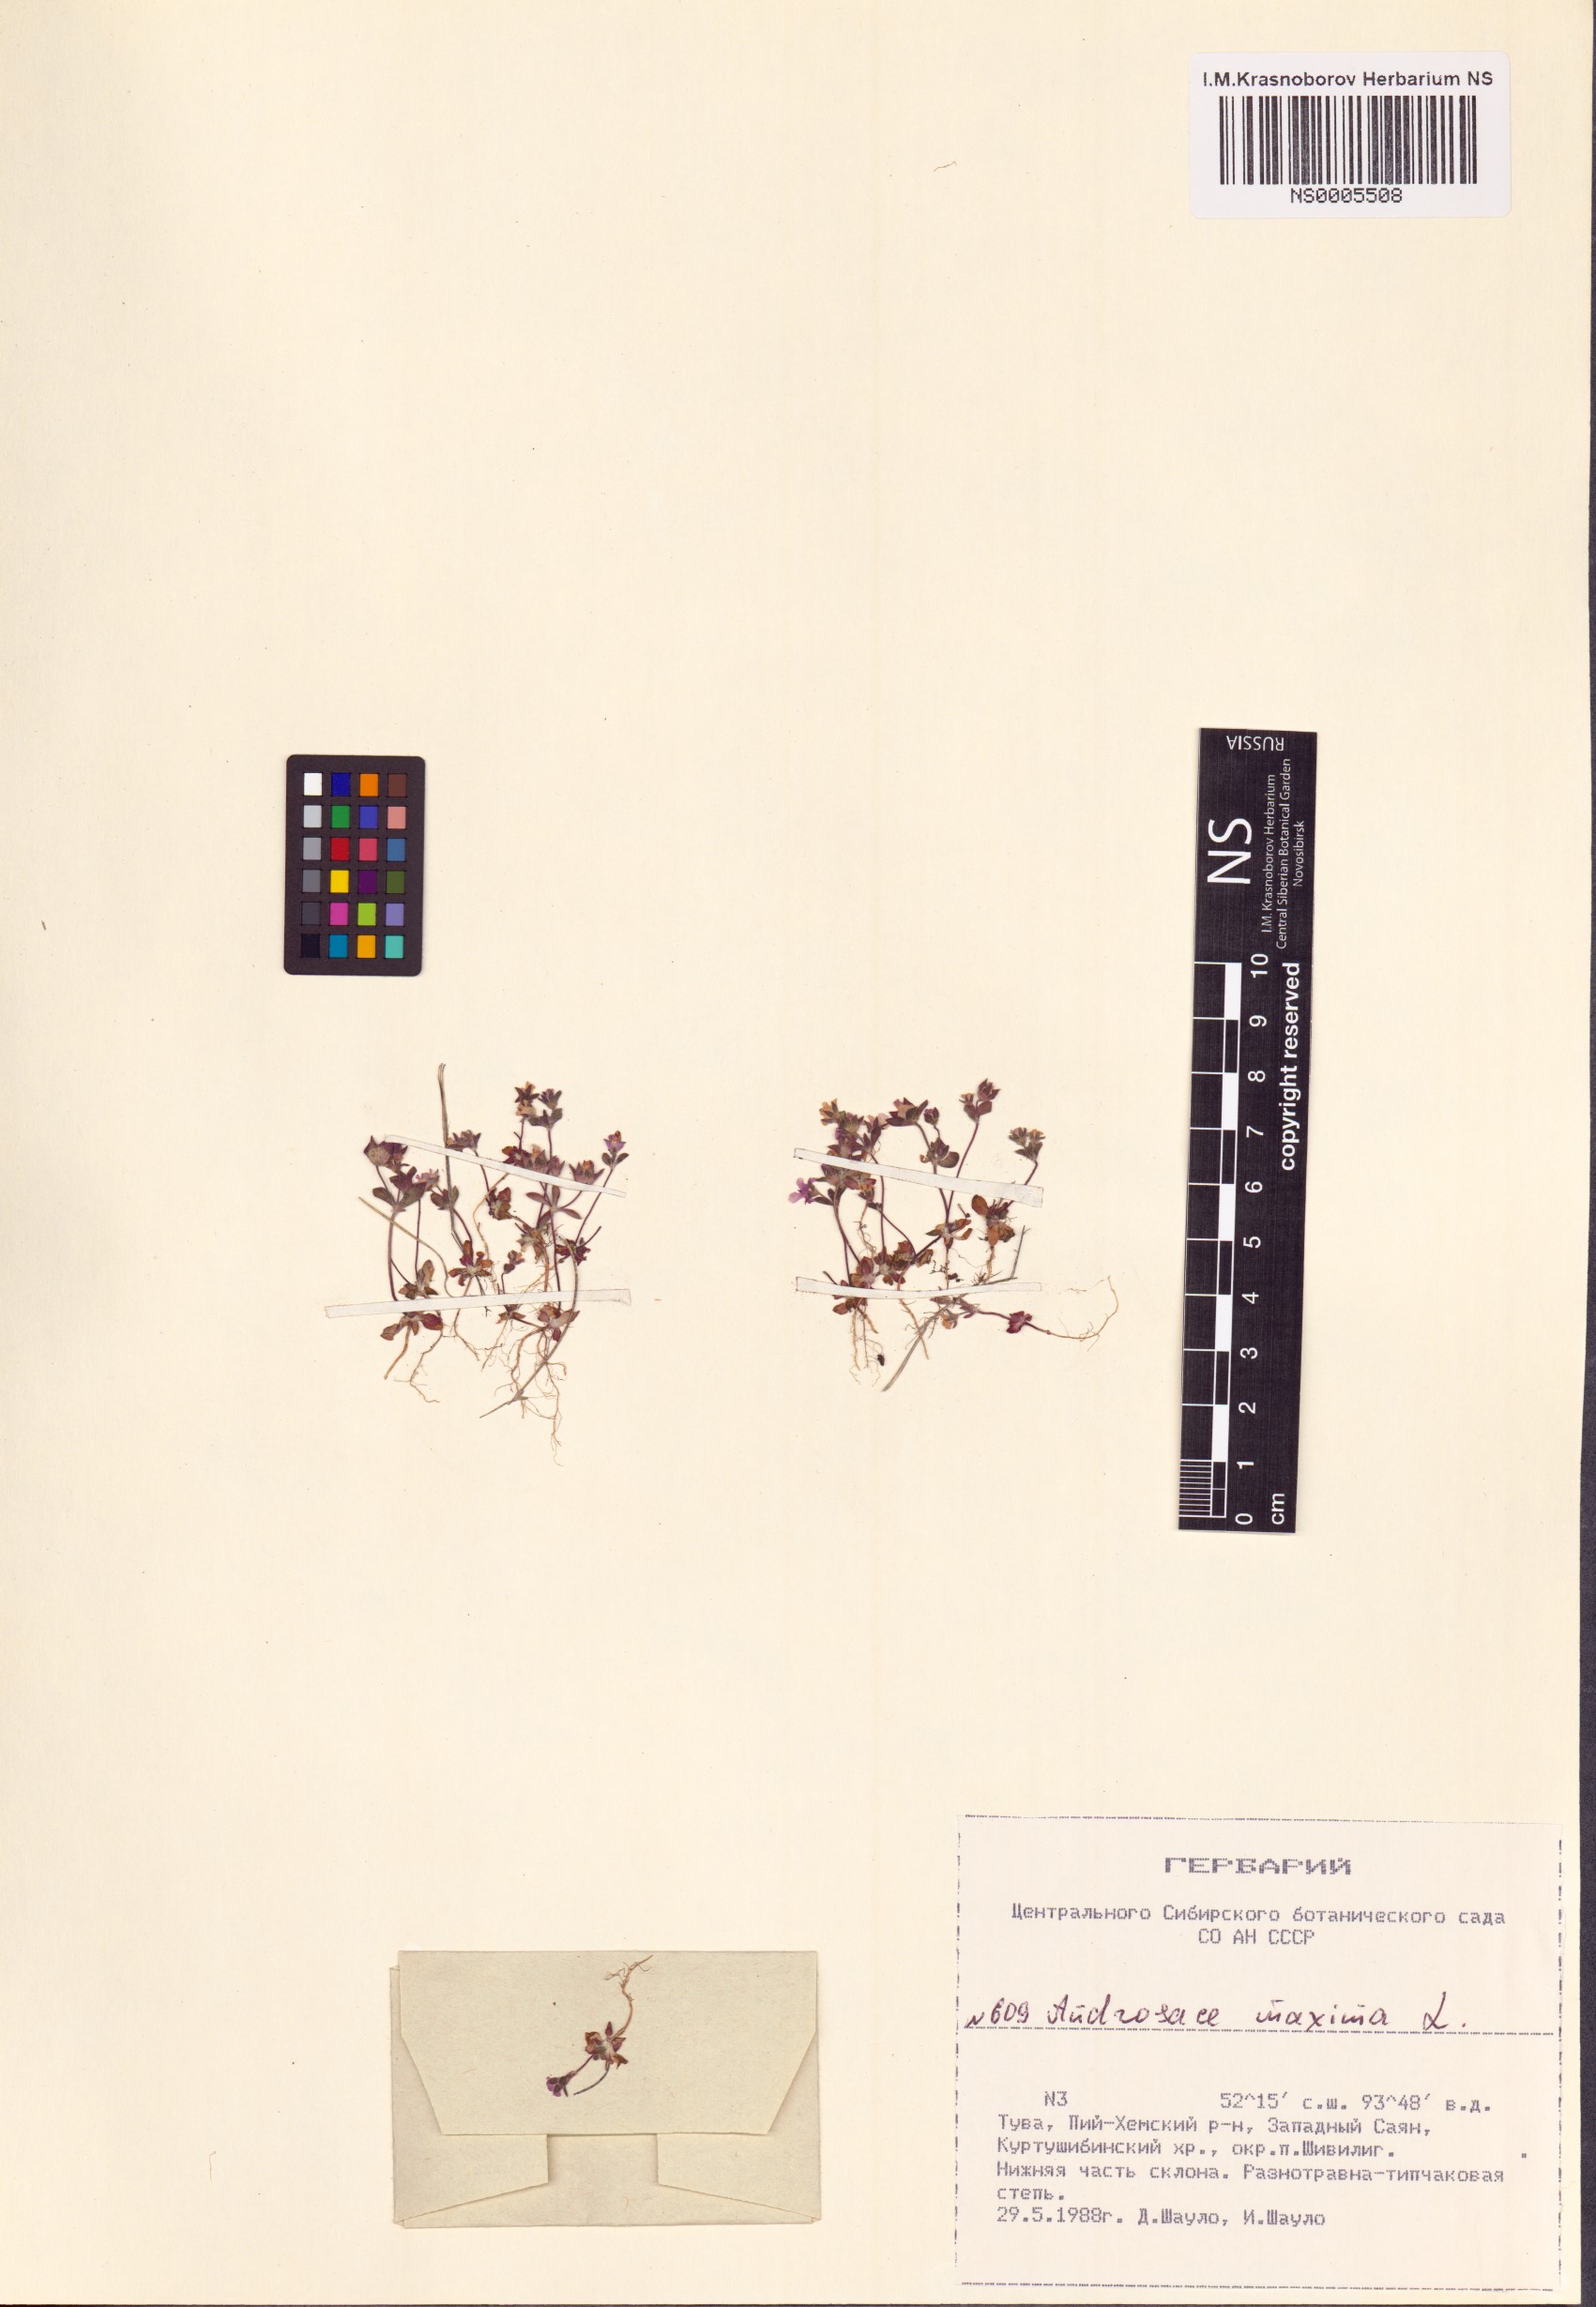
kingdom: Plantae
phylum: Tracheophyta
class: Magnoliopsida
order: Ericales
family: Primulaceae
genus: Androsace
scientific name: Androsace maxima
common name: Annual androsace
